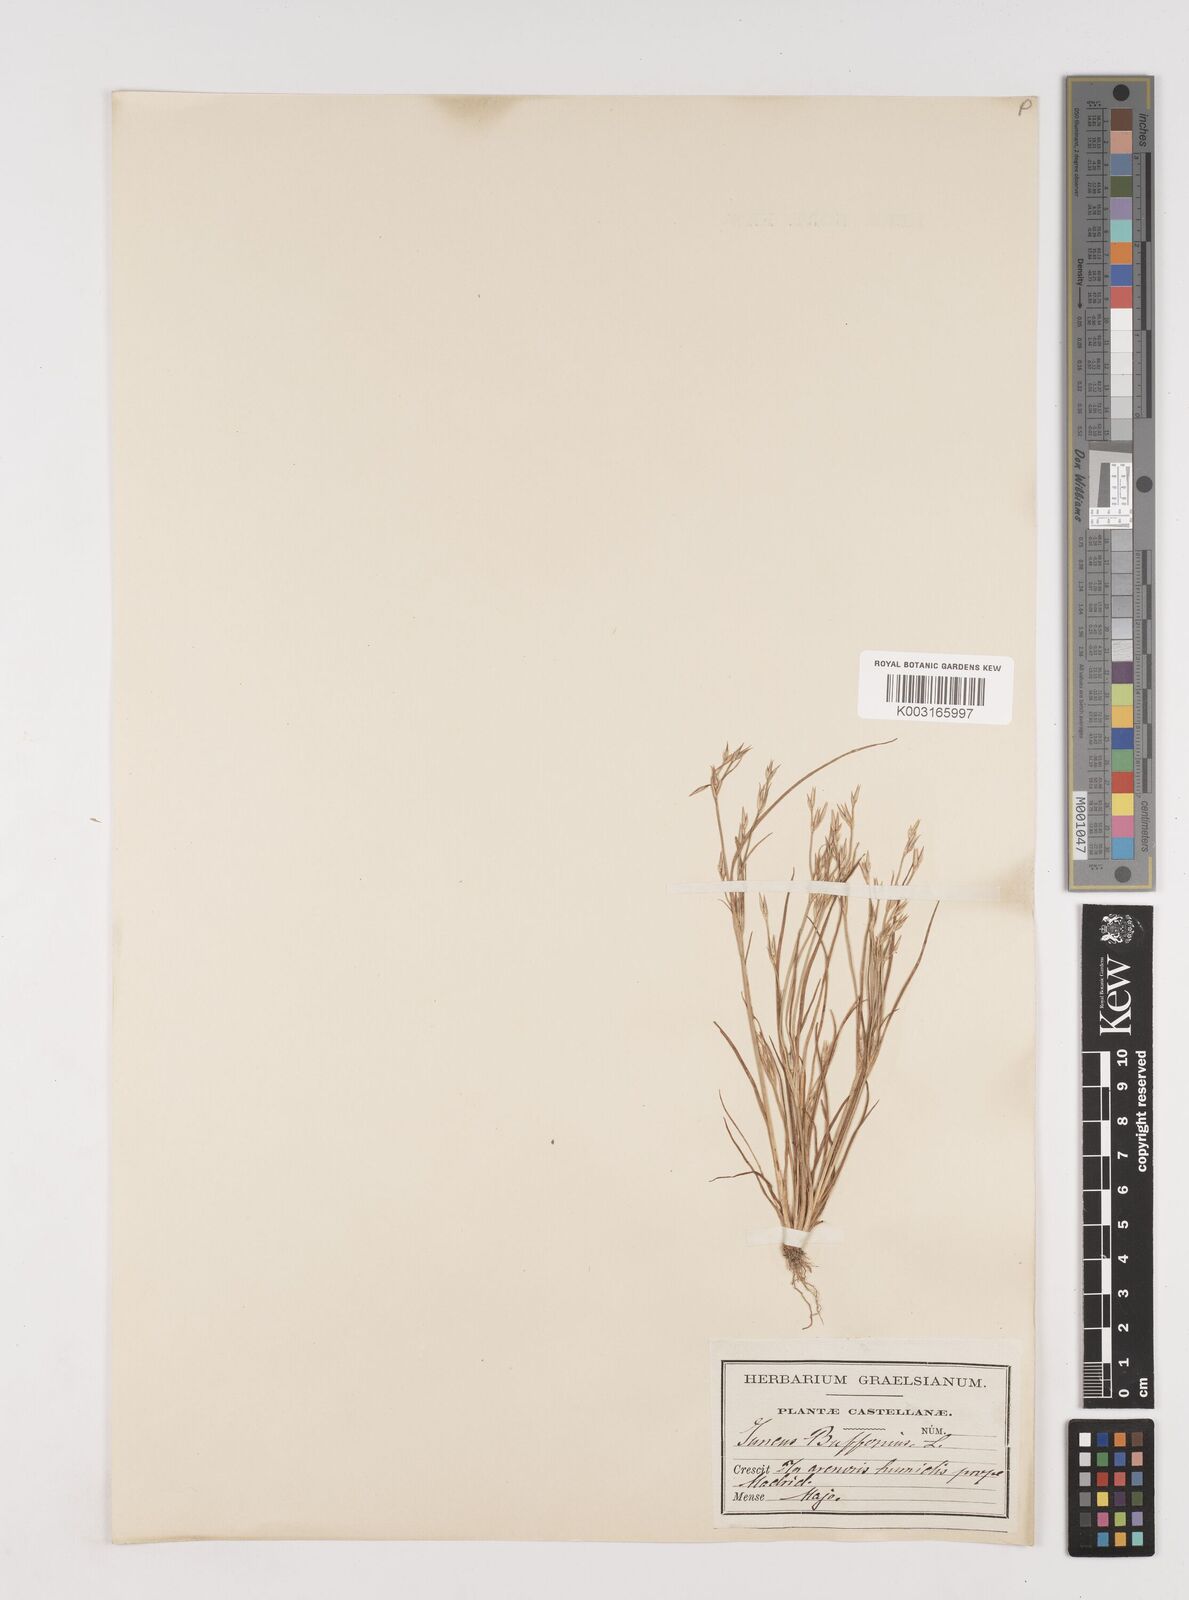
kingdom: Plantae
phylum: Tracheophyta
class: Liliopsida
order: Poales
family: Juncaceae
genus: Juncus
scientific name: Juncus bufonius
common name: Toad rush
